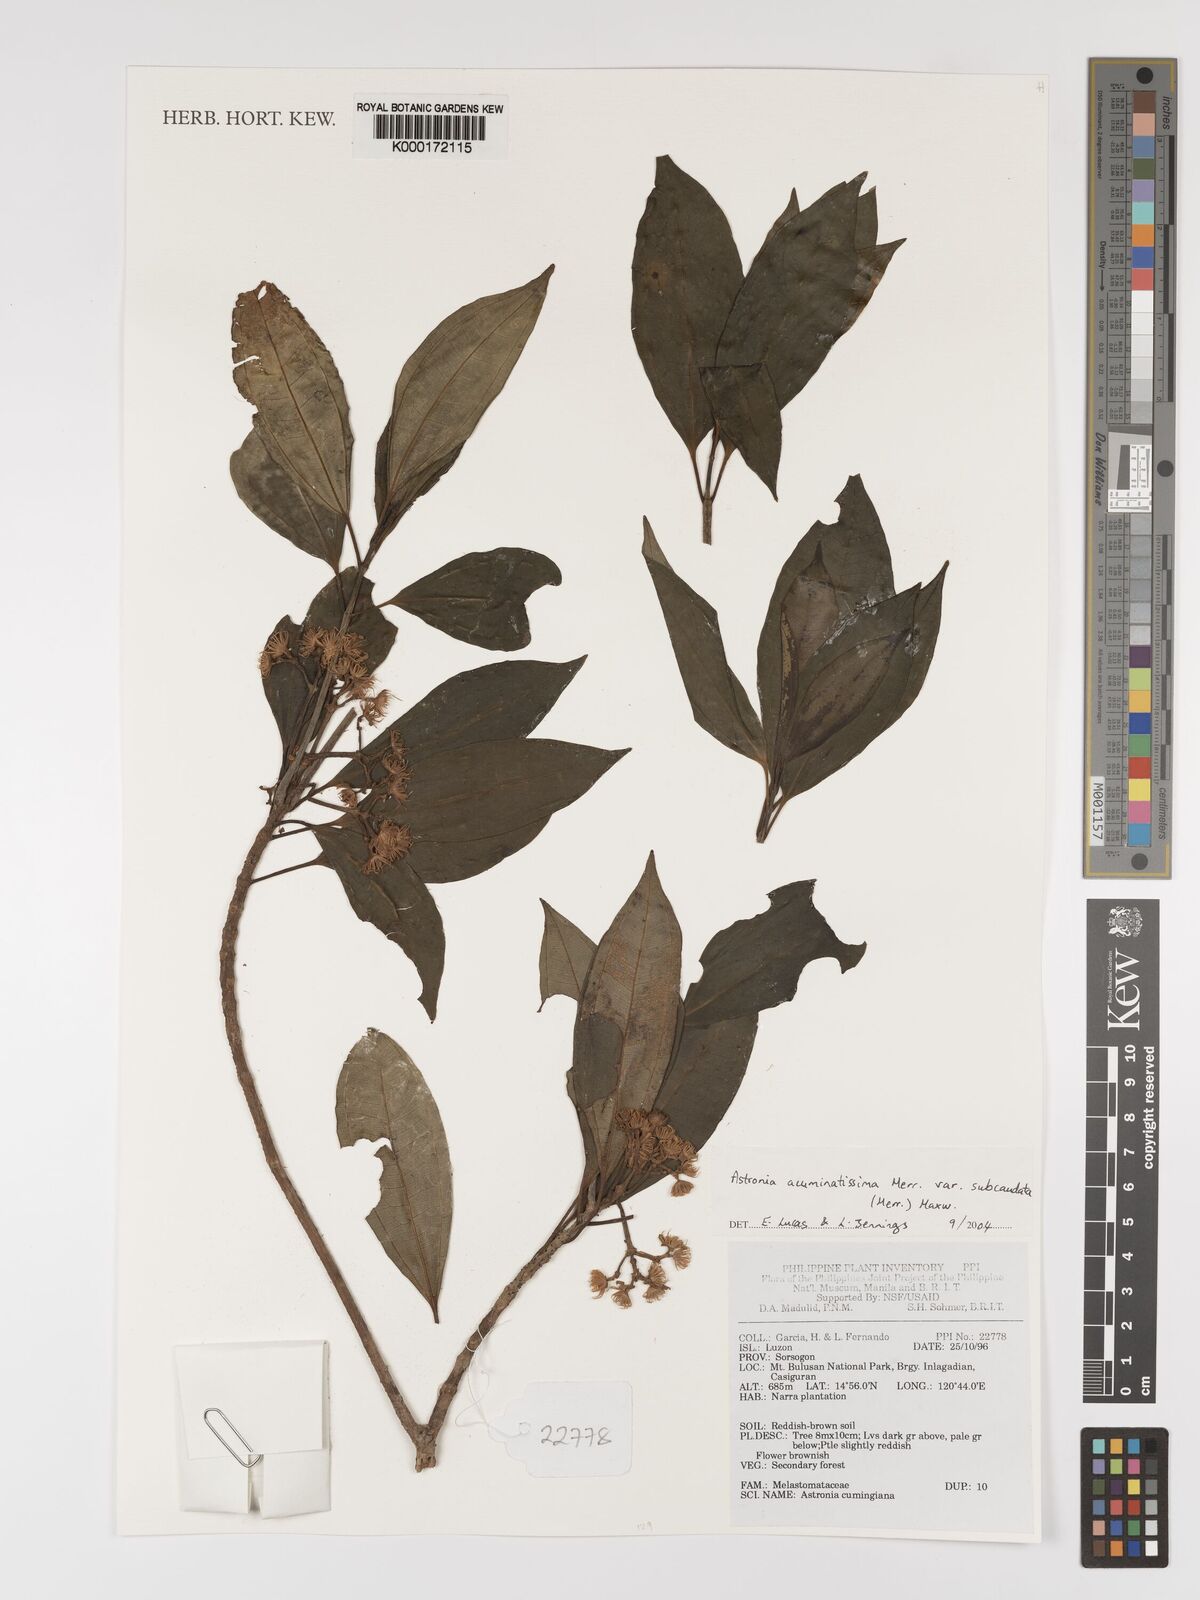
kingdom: Plantae
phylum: Tracheophyta
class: Magnoliopsida
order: Myrtales
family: Melastomataceae
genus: Astronia
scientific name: Astronia acuminatissima
